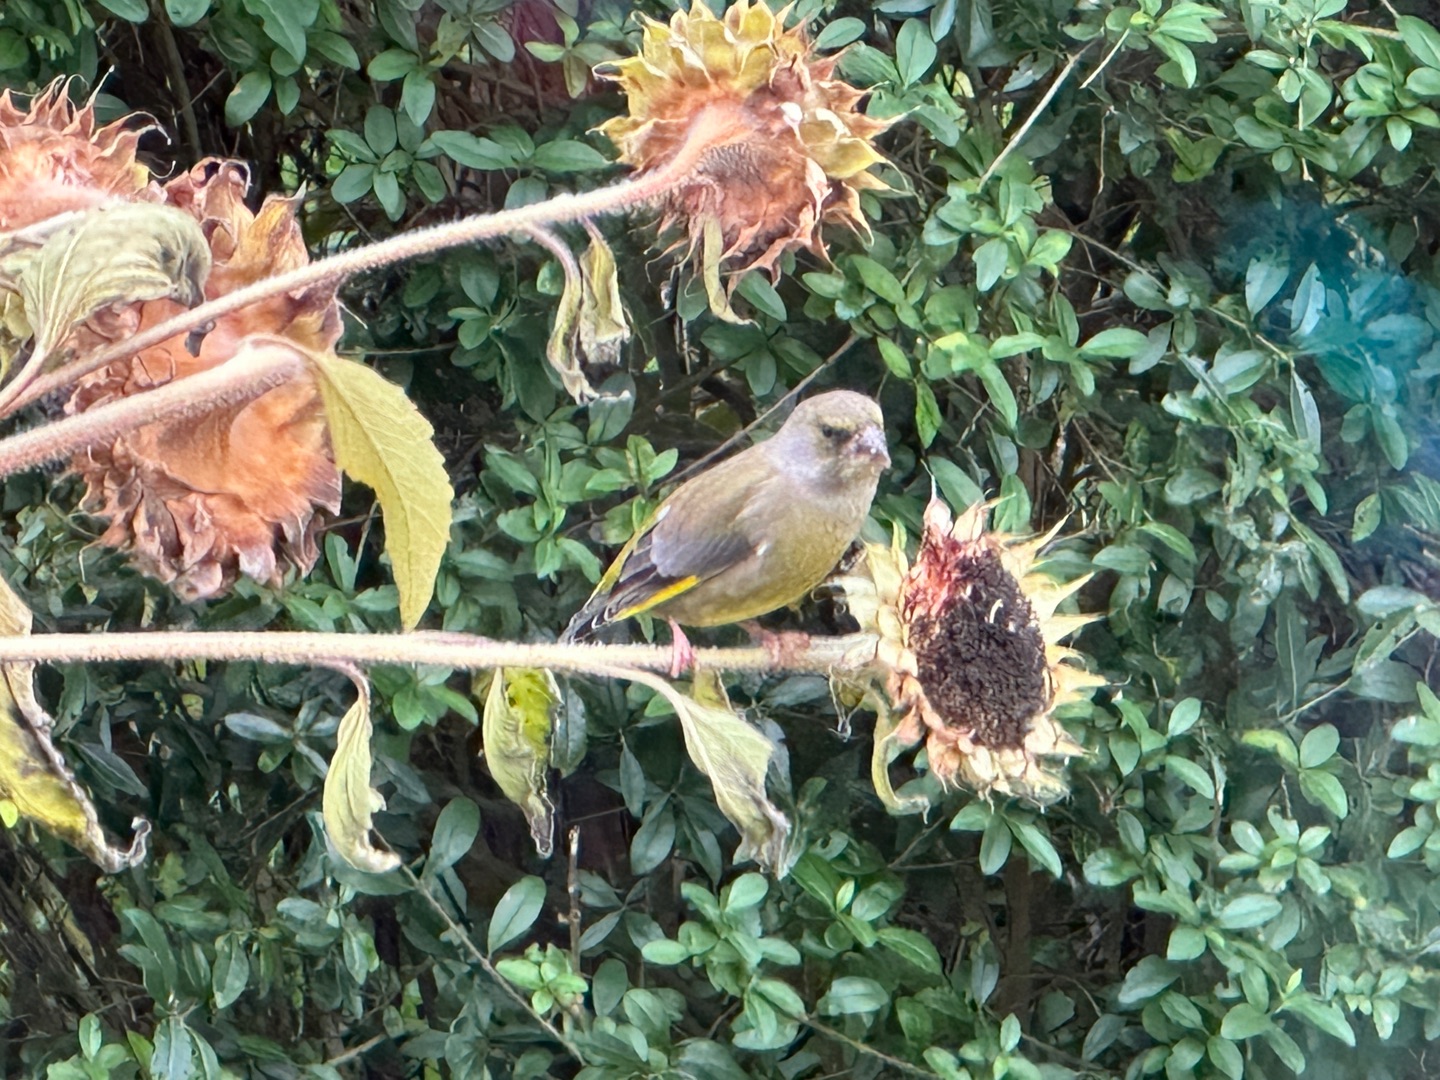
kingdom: Plantae
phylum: Tracheophyta
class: Liliopsida
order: Poales
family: Poaceae
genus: Chloris
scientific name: Chloris chloris
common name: Grønirisk
